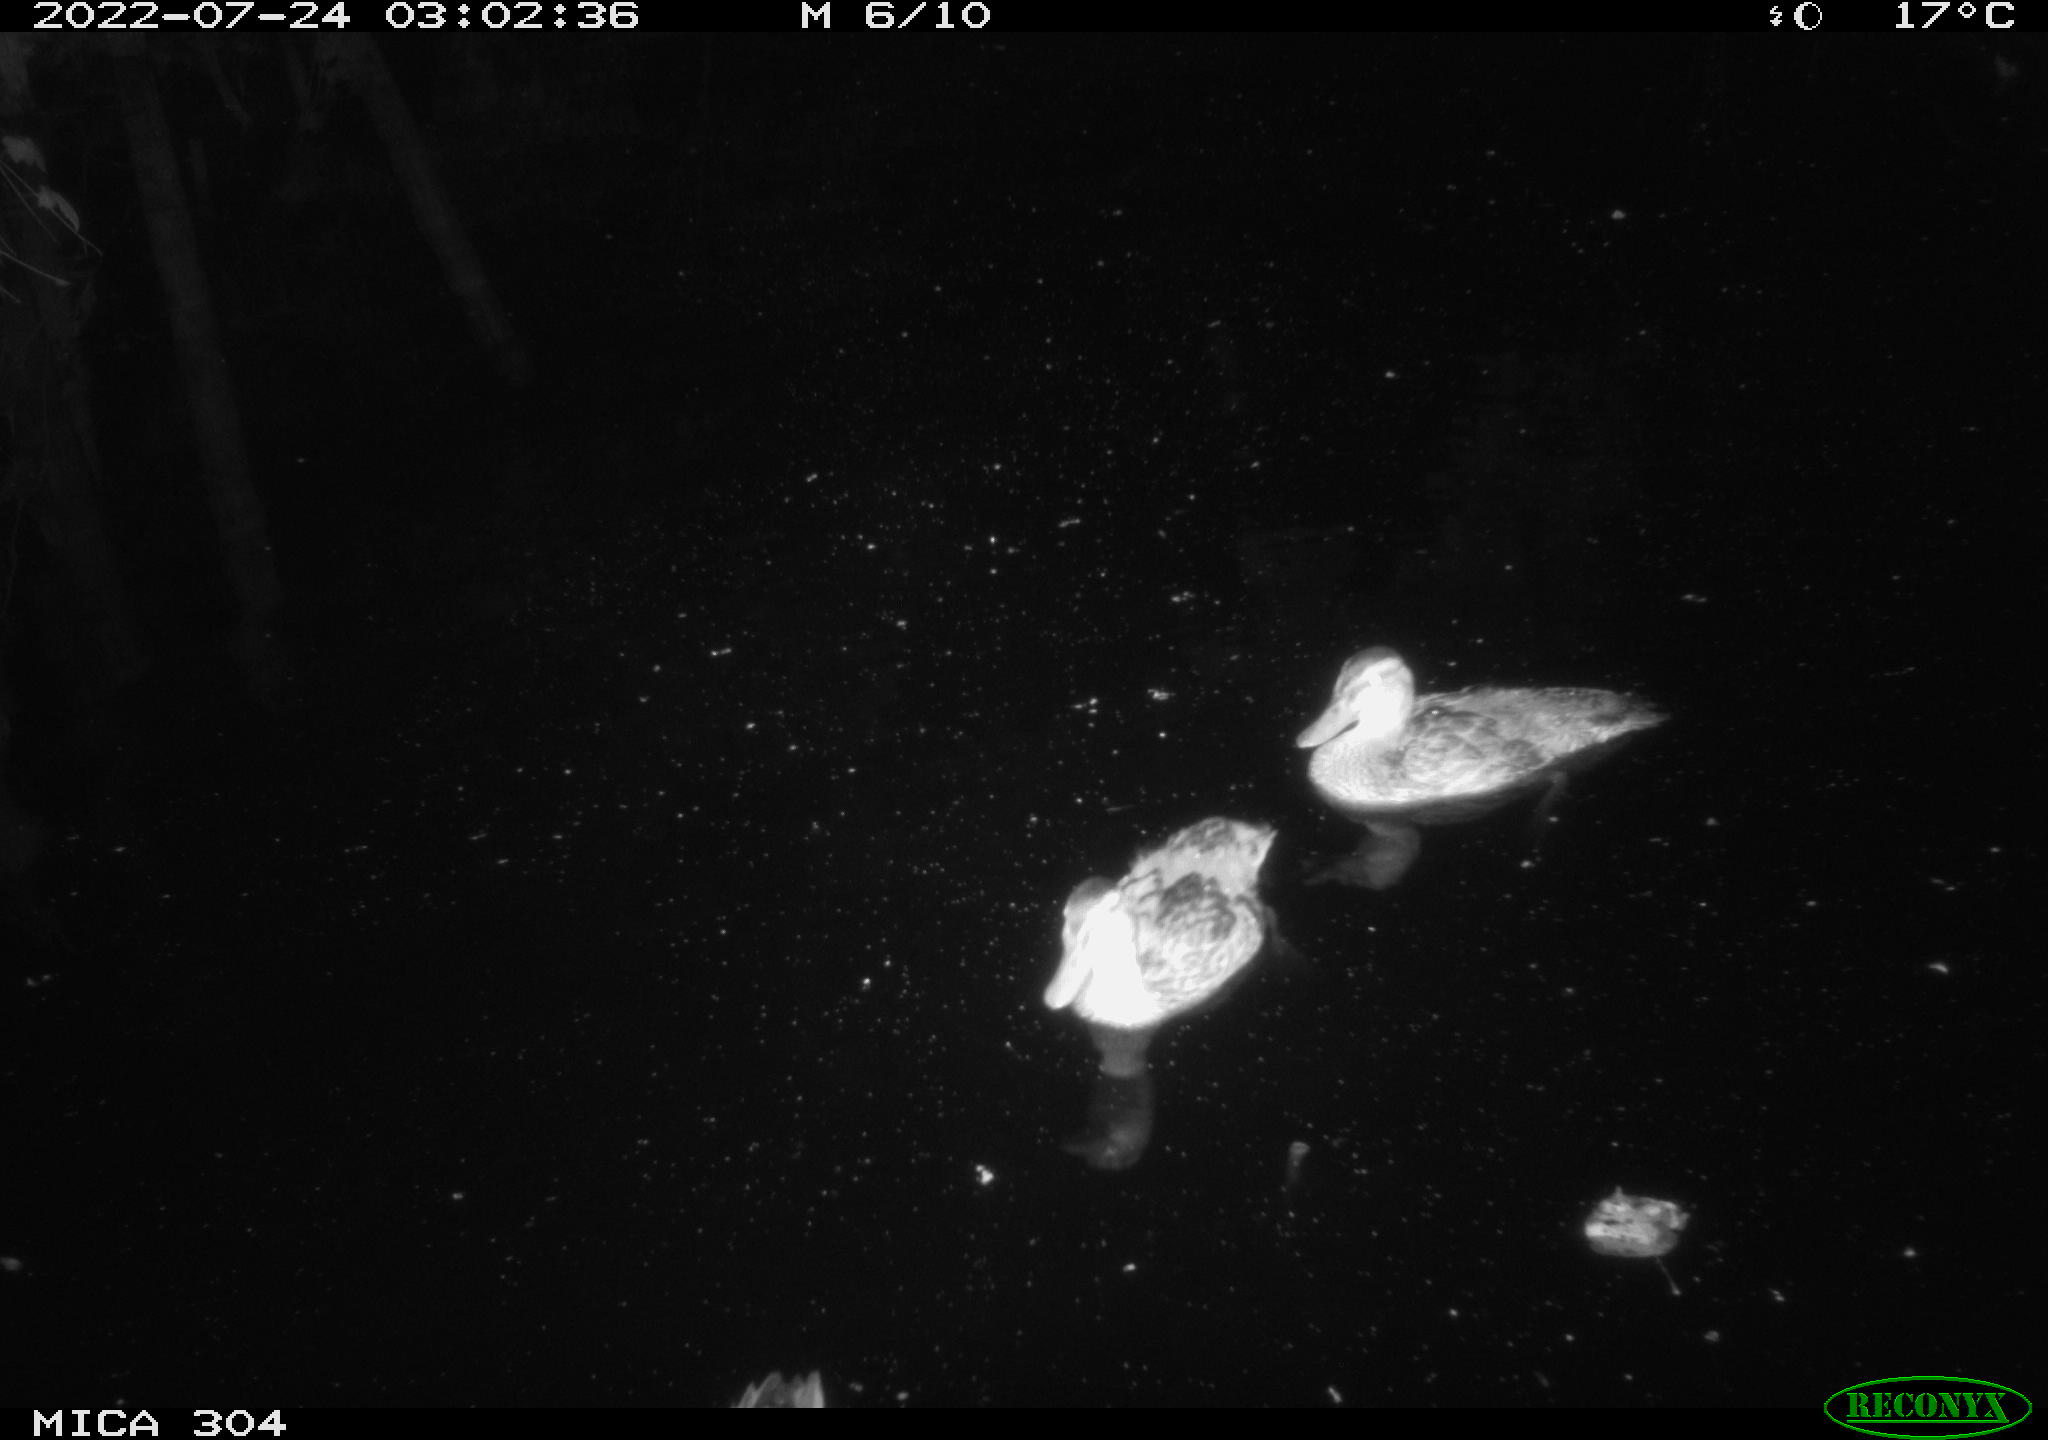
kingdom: Animalia
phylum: Chordata
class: Aves
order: Anseriformes
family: Anatidae
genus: Anas
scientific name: Anas platyrhynchos
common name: Mallard
